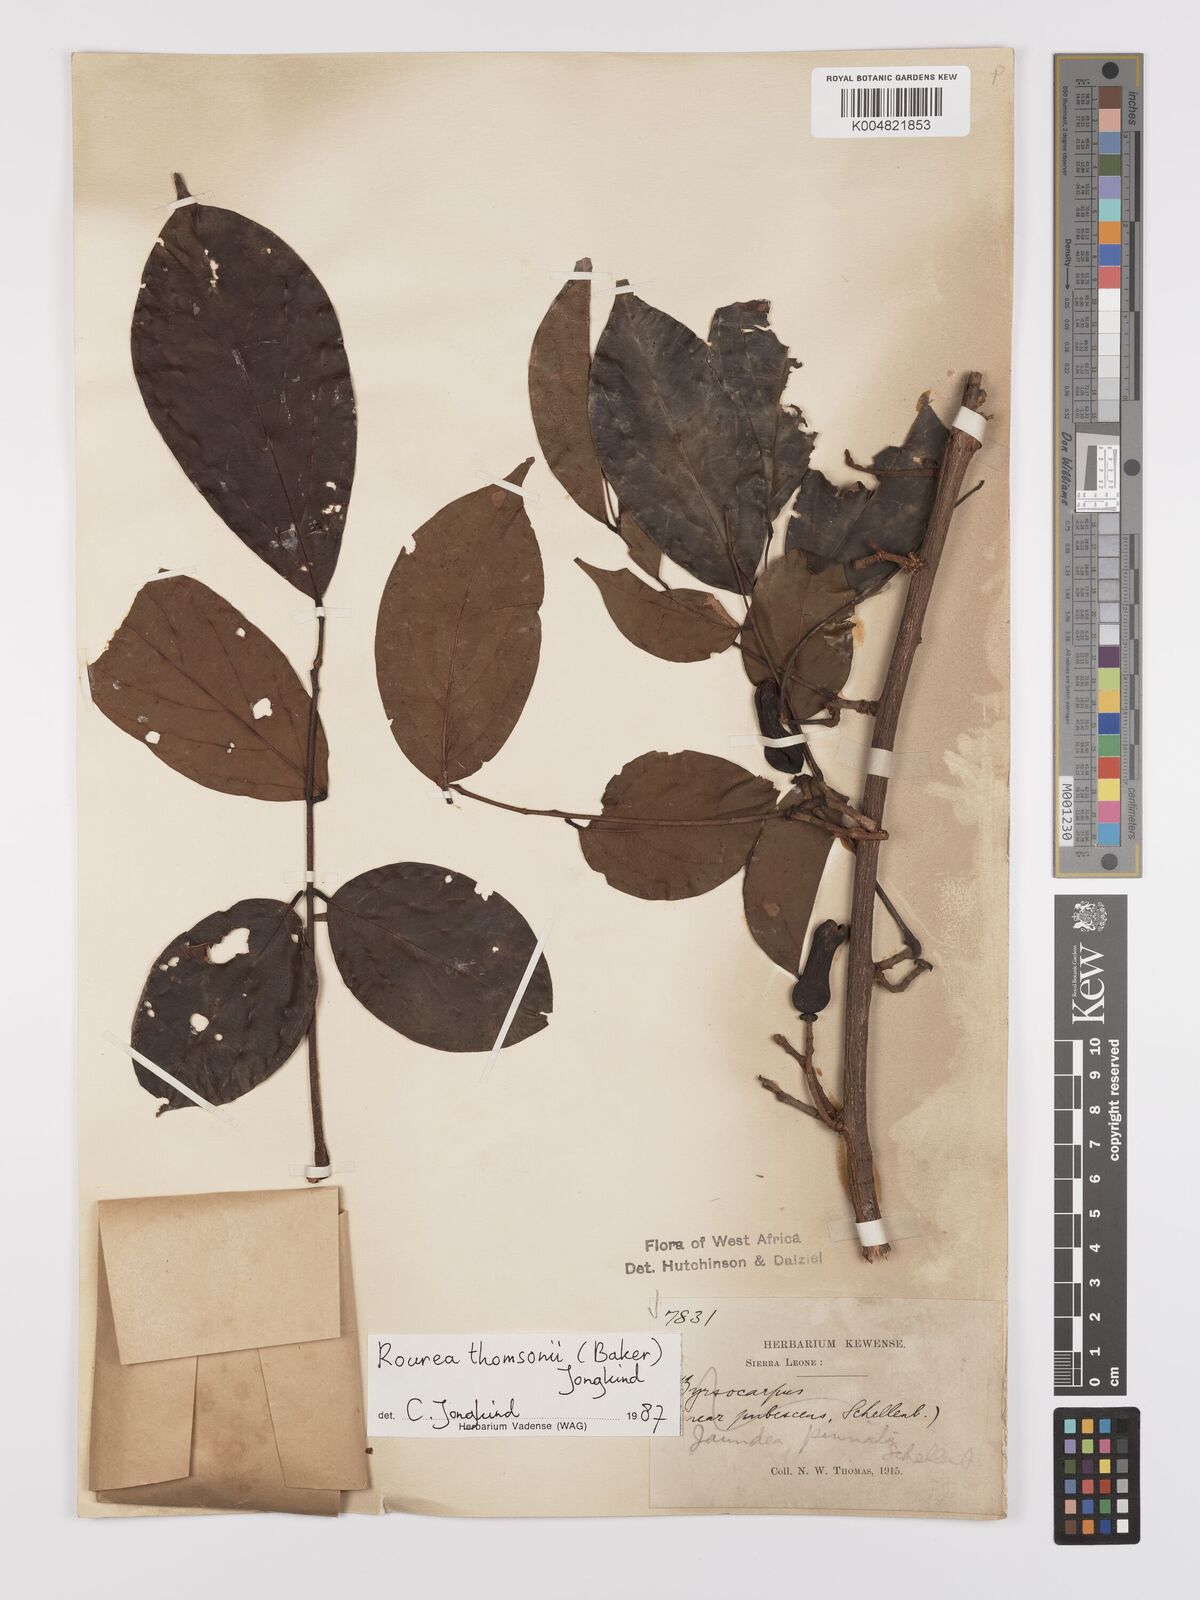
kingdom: Plantae
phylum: Tracheophyta
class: Magnoliopsida
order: Oxalidales
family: Connaraceae
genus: Rourea
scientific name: Rourea pinnata
